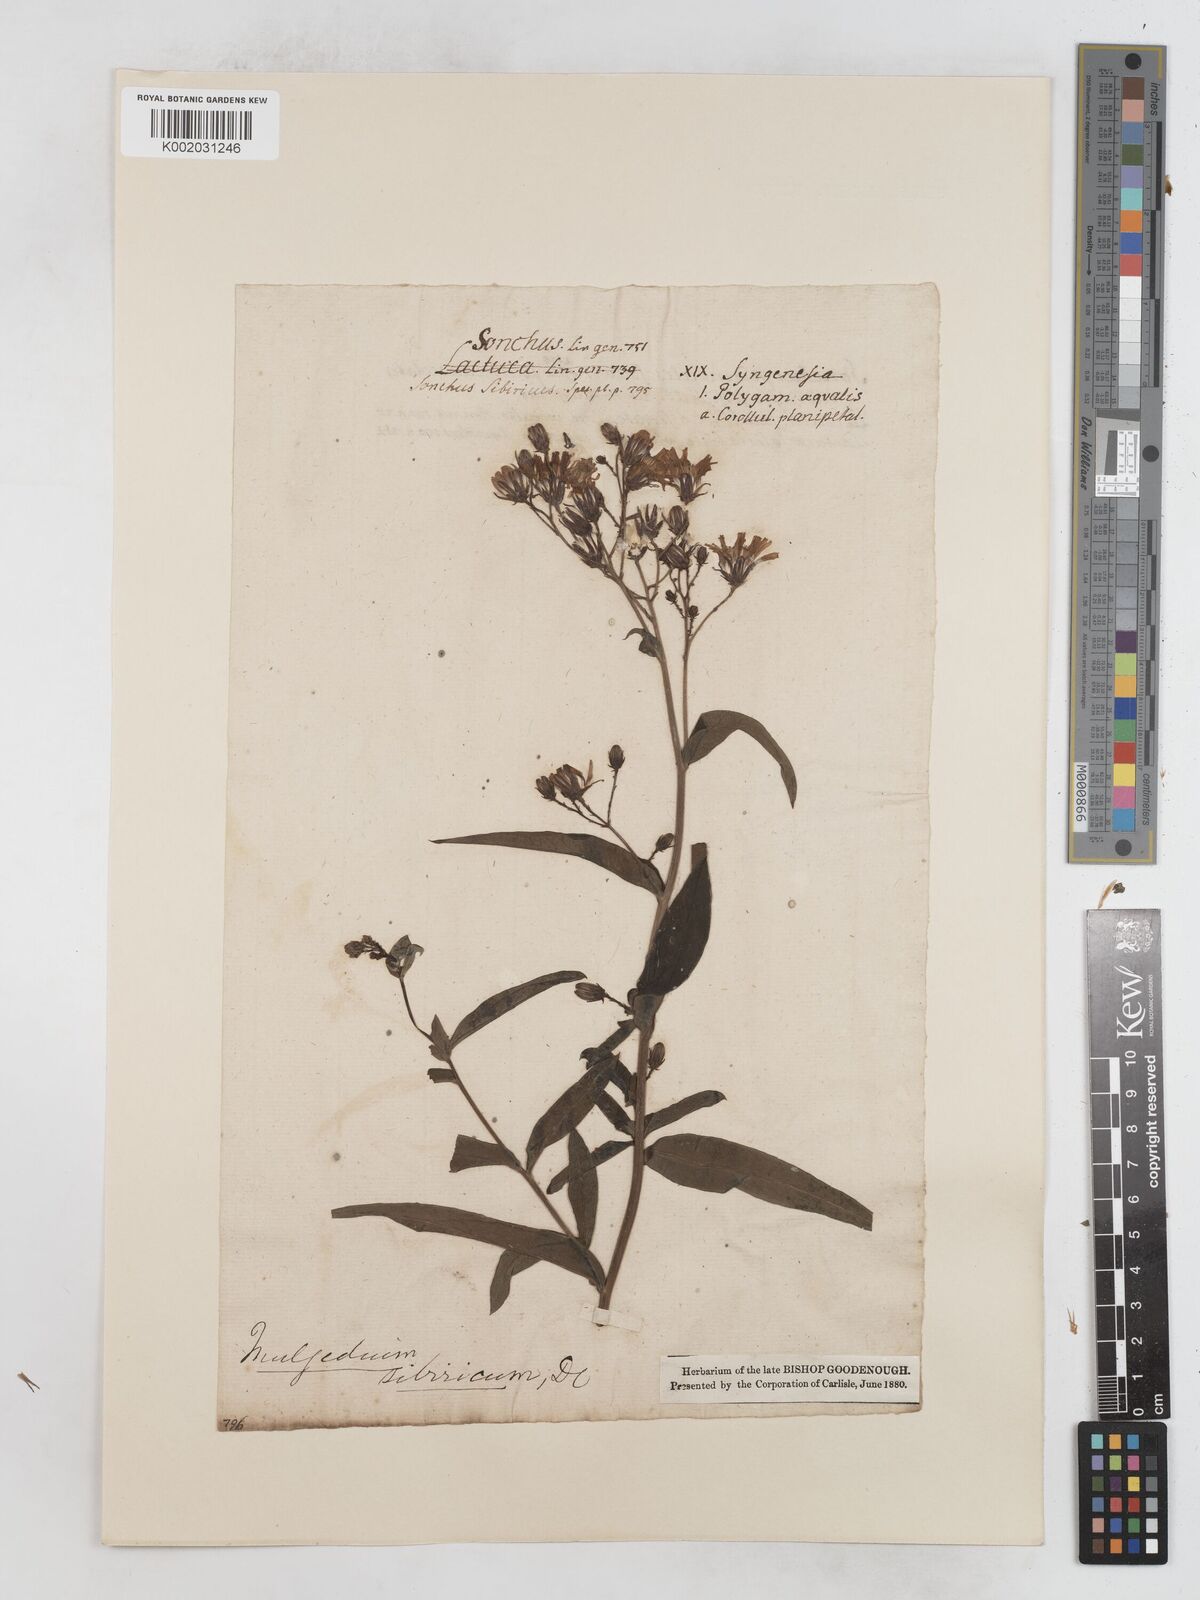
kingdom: Plantae
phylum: Tracheophyta
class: Magnoliopsida
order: Asterales
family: Asteraceae
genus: Lactuca
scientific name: Lactuca sibirica
